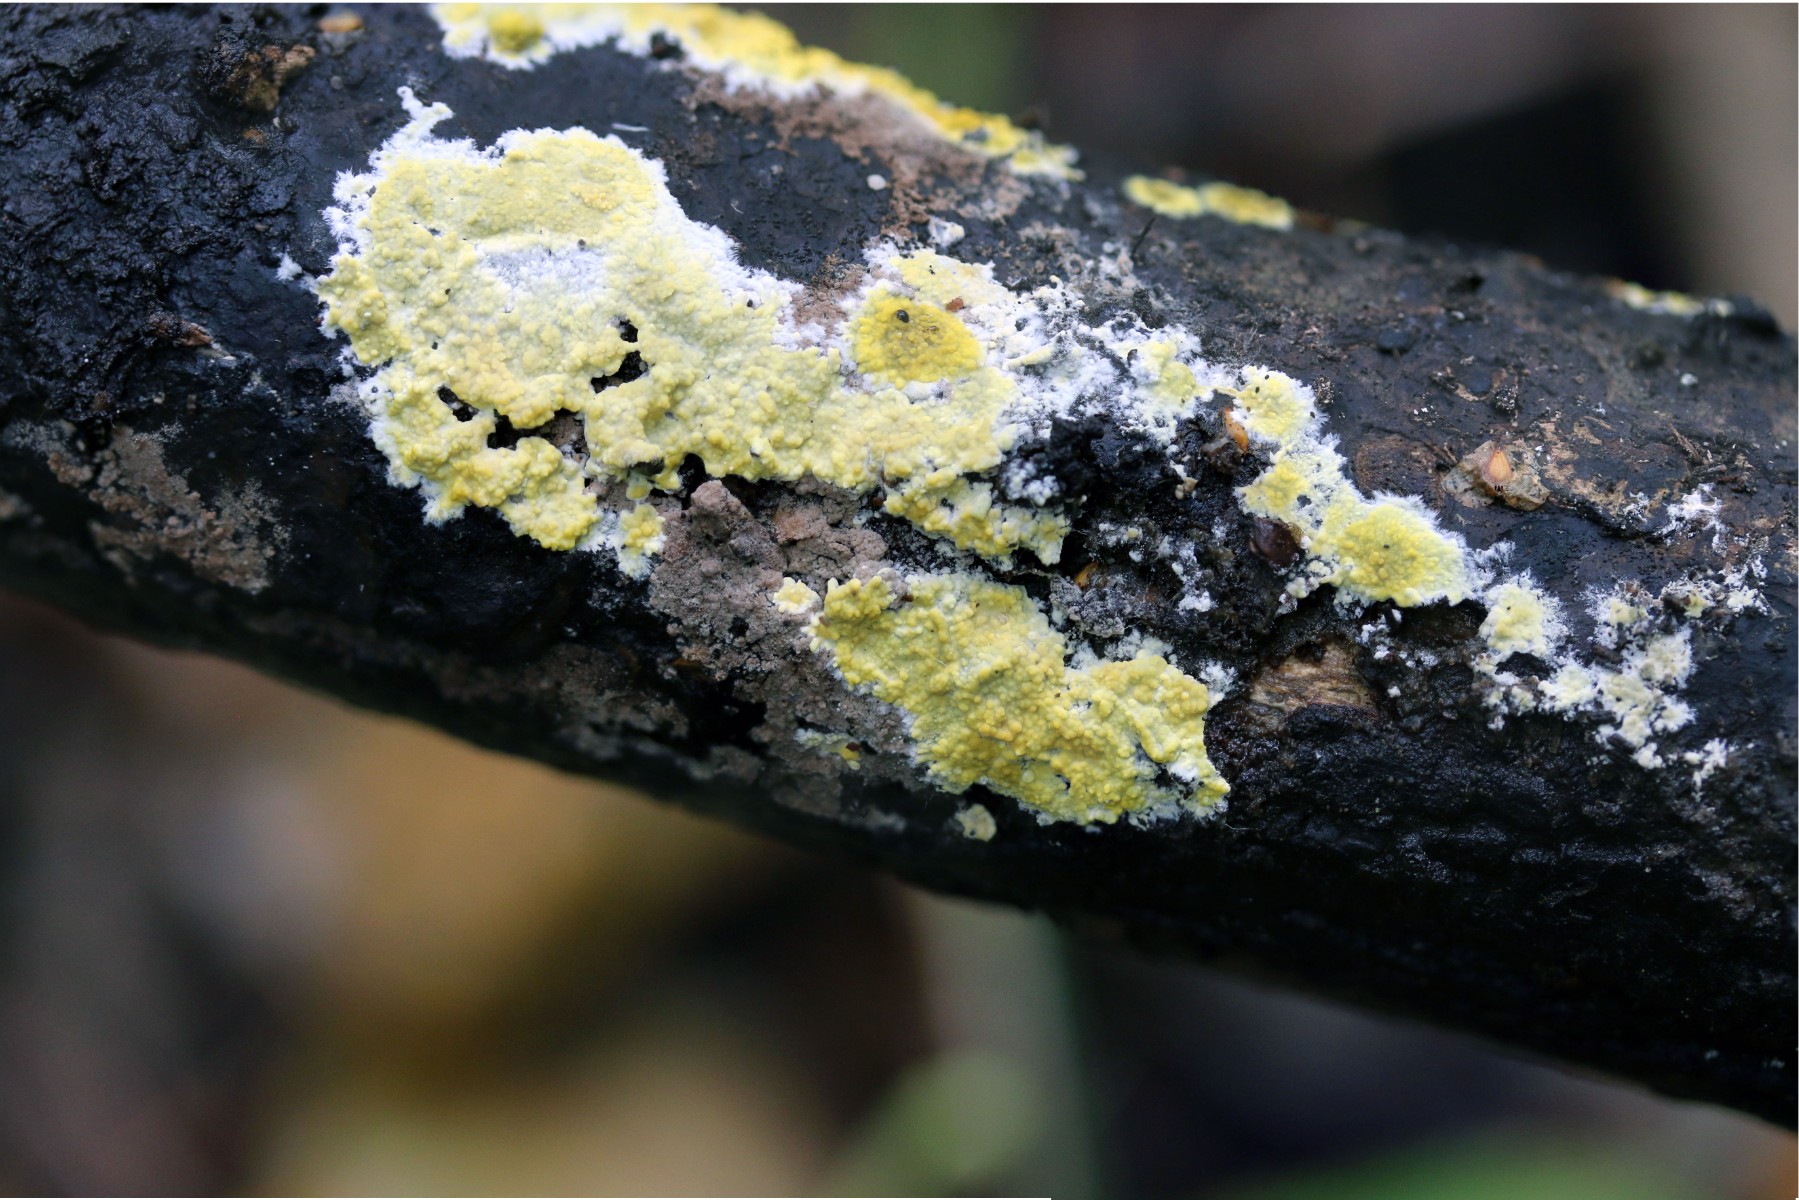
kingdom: Fungi
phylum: Basidiomycota
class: Agaricomycetes
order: Polyporales
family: Meruliaceae
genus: Phlebiodontia
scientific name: Phlebiodontia subochracea
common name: svovl-åresvamp
